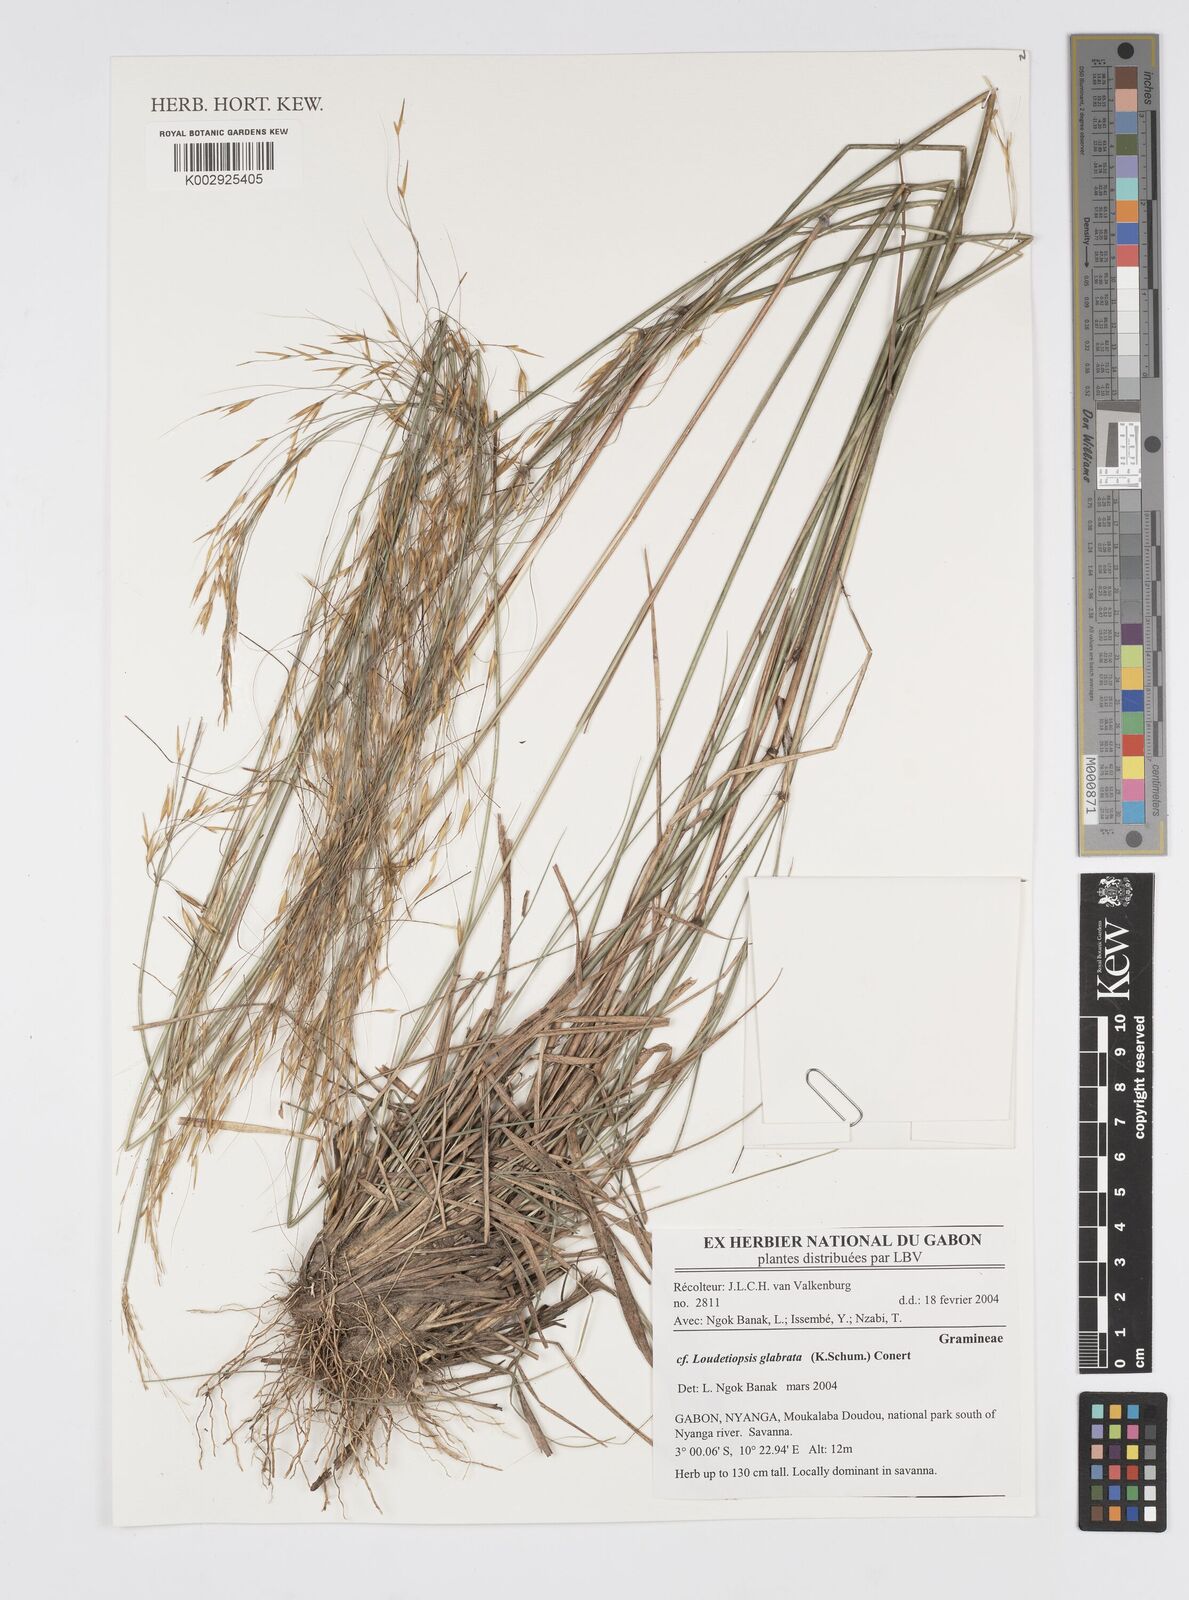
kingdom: Plantae
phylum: Tracheophyta
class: Liliopsida
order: Poales
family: Poaceae
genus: Loudetiopsis
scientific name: Loudetiopsis glabrata
